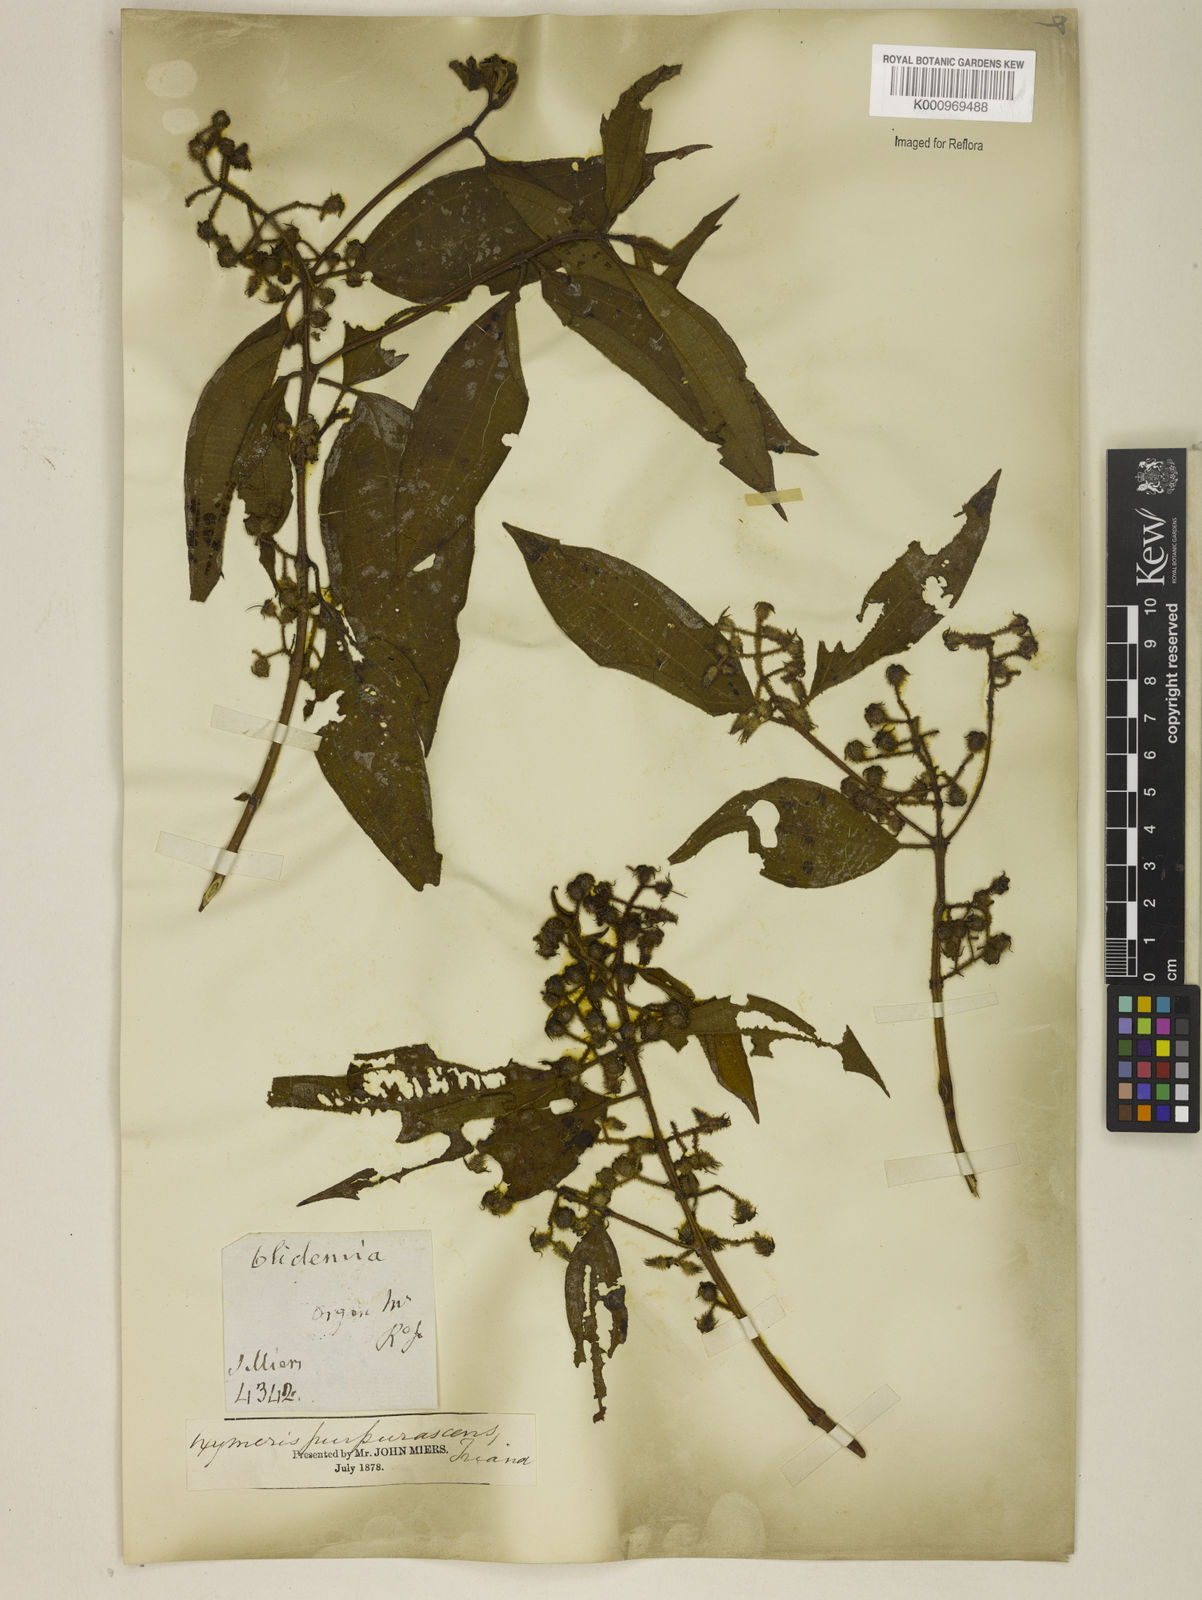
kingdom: Plantae
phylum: Tracheophyta
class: Magnoliopsida
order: Myrtales
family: Melastomataceae
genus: Miconia
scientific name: Miconia microstachya
